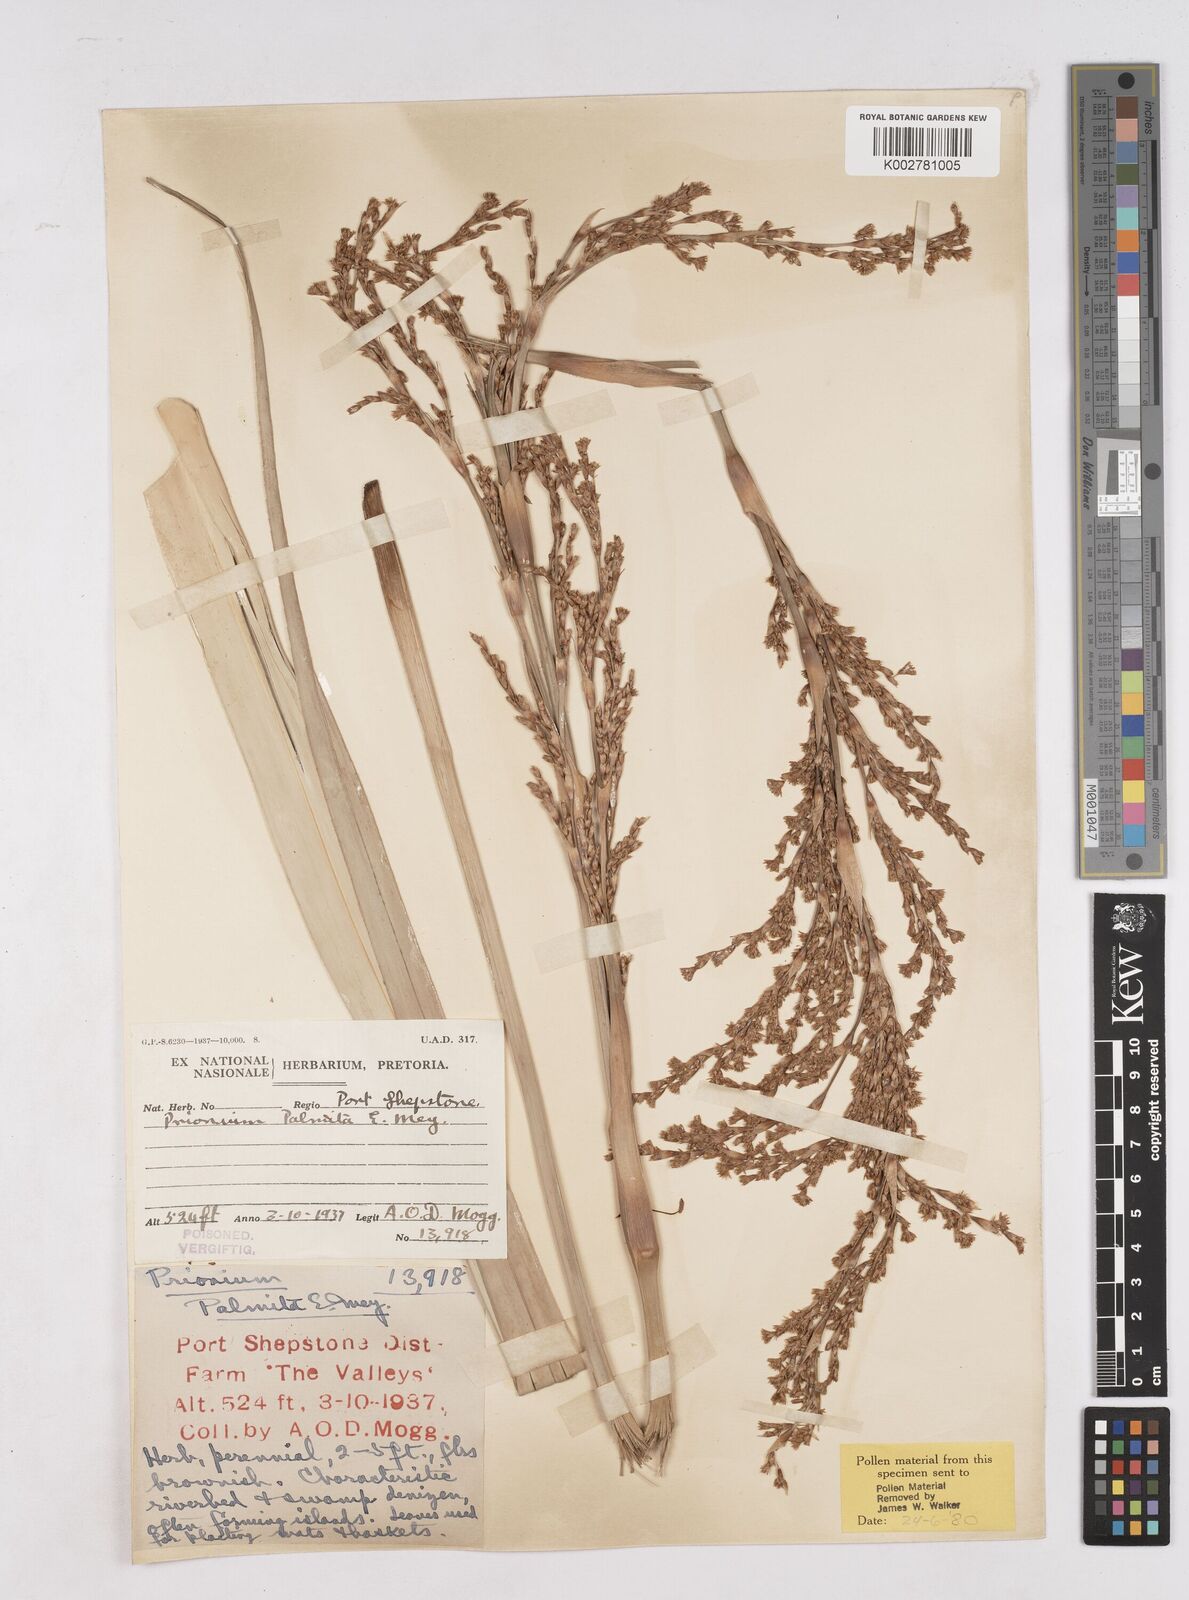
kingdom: Plantae
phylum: Tracheophyta
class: Liliopsida
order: Poales
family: Thurniaceae
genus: Prionium
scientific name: Prionium serratum
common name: Palmiet
